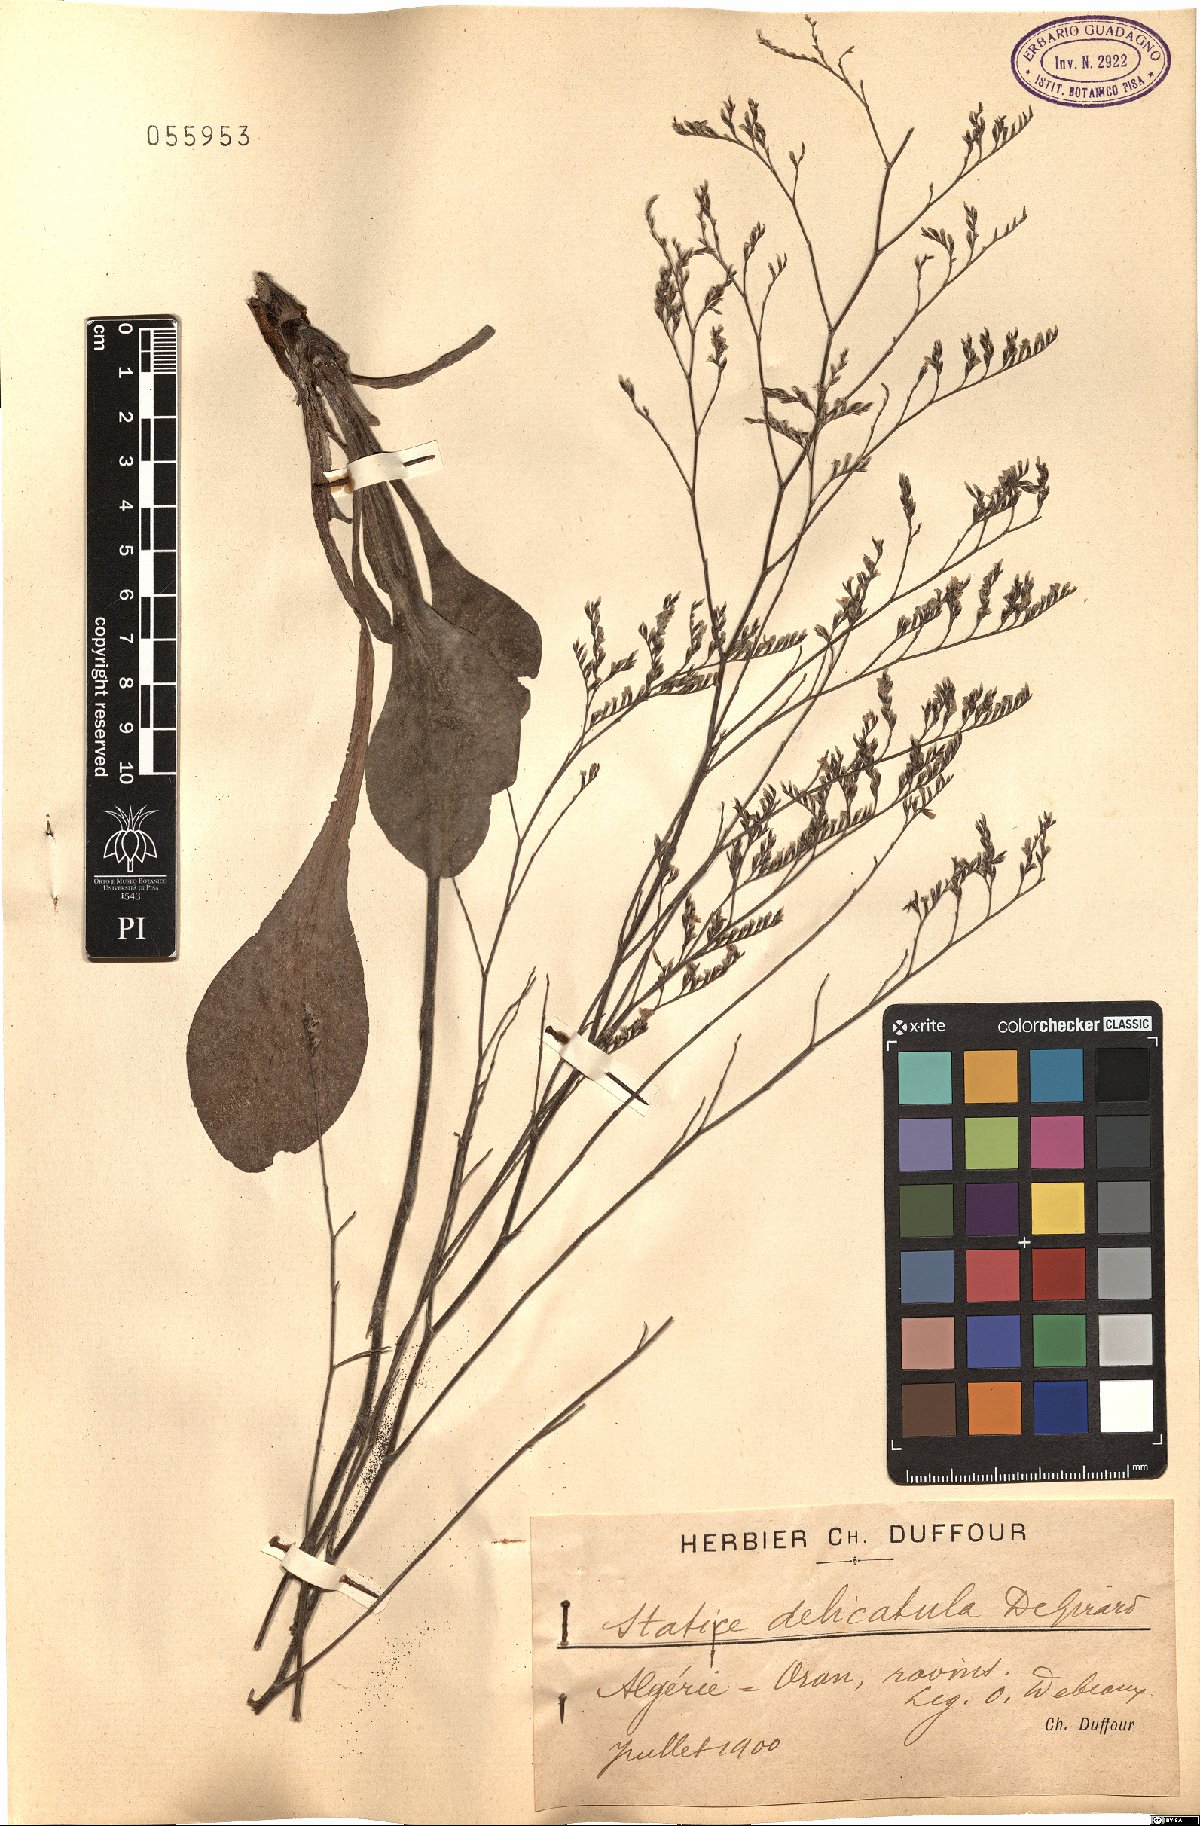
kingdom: Plantae
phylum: Tracheophyta
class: Magnoliopsida
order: Caryophyllales
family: Plumbaginaceae
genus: Limonium
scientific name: Limonium delicatulum
